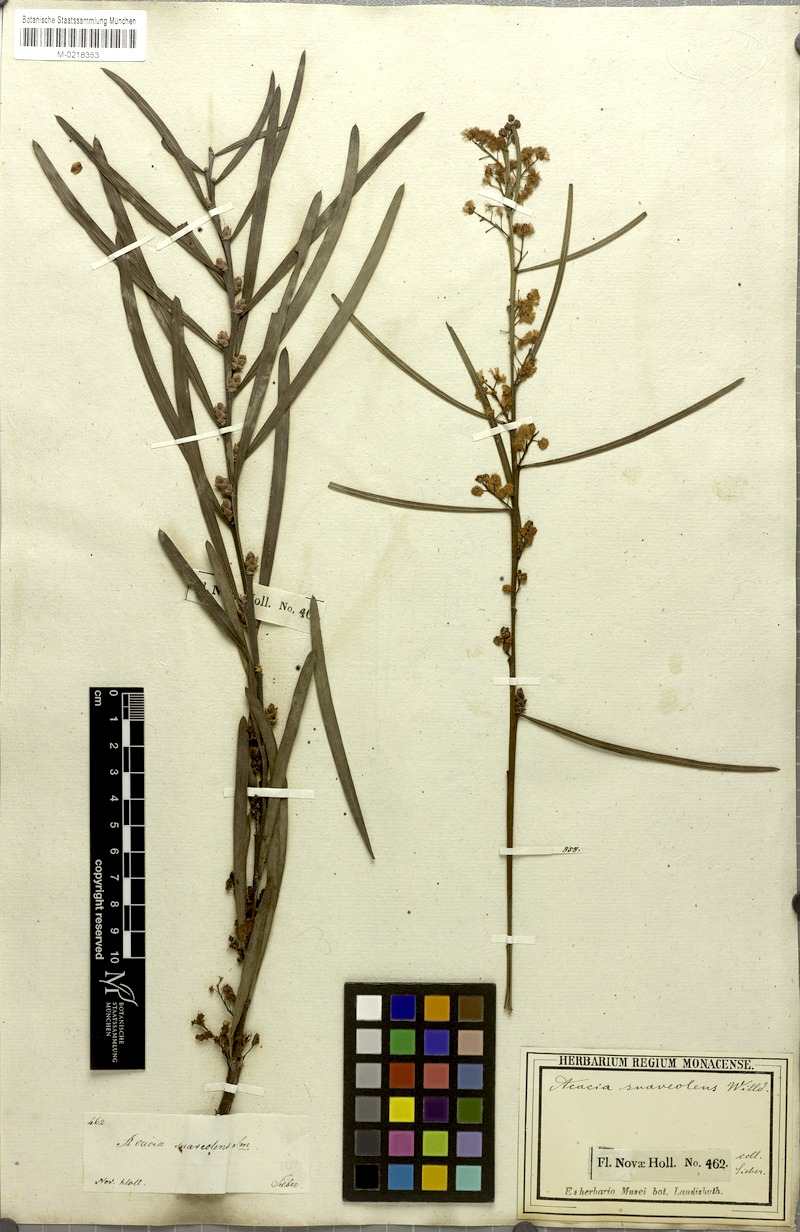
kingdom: Plantae
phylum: Tracheophyta
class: Magnoliopsida
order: Fabales
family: Fabaceae
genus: Acacia
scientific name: Acacia suaveolens
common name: Sweet acacia
